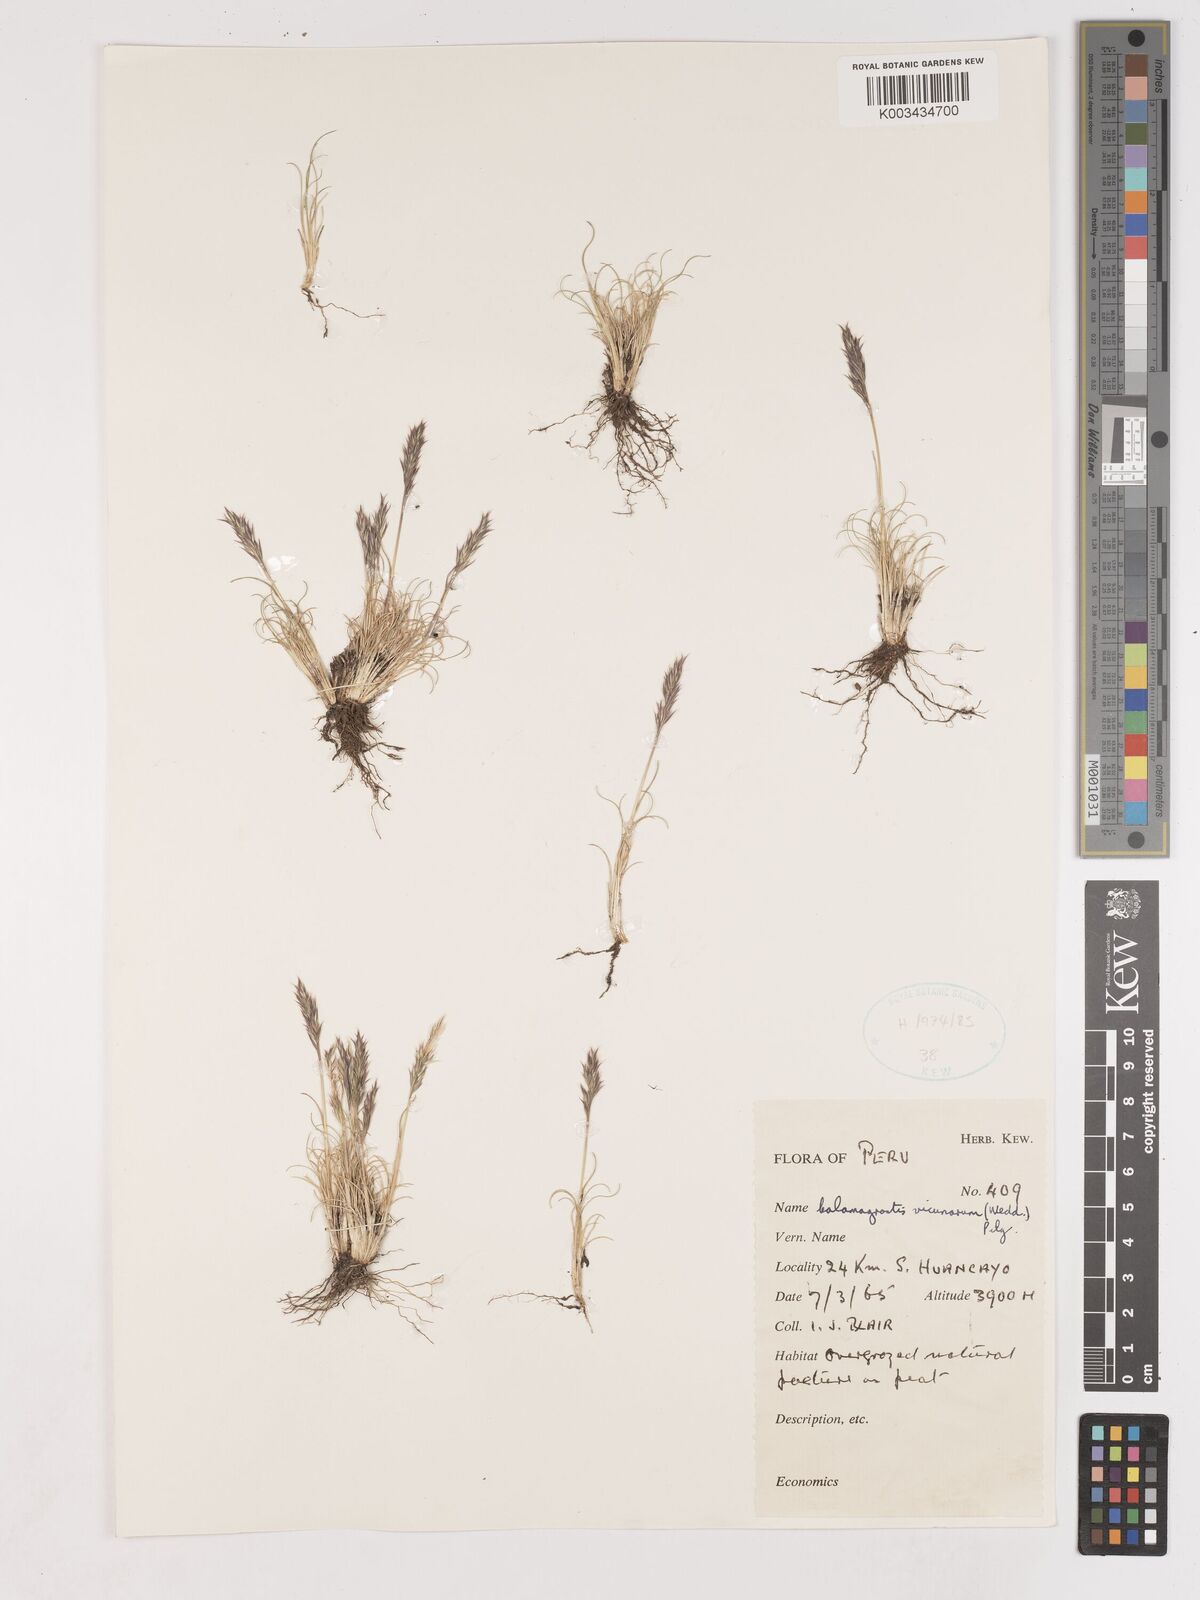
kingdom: Plantae
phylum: Tracheophyta
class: Liliopsida
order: Poales
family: Poaceae
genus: Cinnagrostis
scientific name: Cinnagrostis vicunarum
